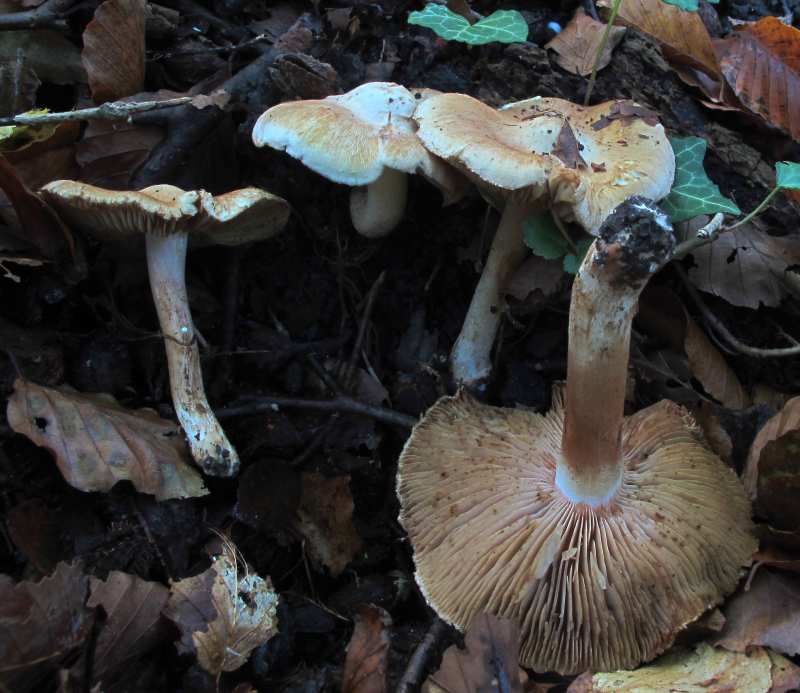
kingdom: Fungi
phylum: Basidiomycota
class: Agaricomycetes
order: Agaricales
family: Inocybaceae
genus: Inocybe
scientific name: Inocybe incarnata
